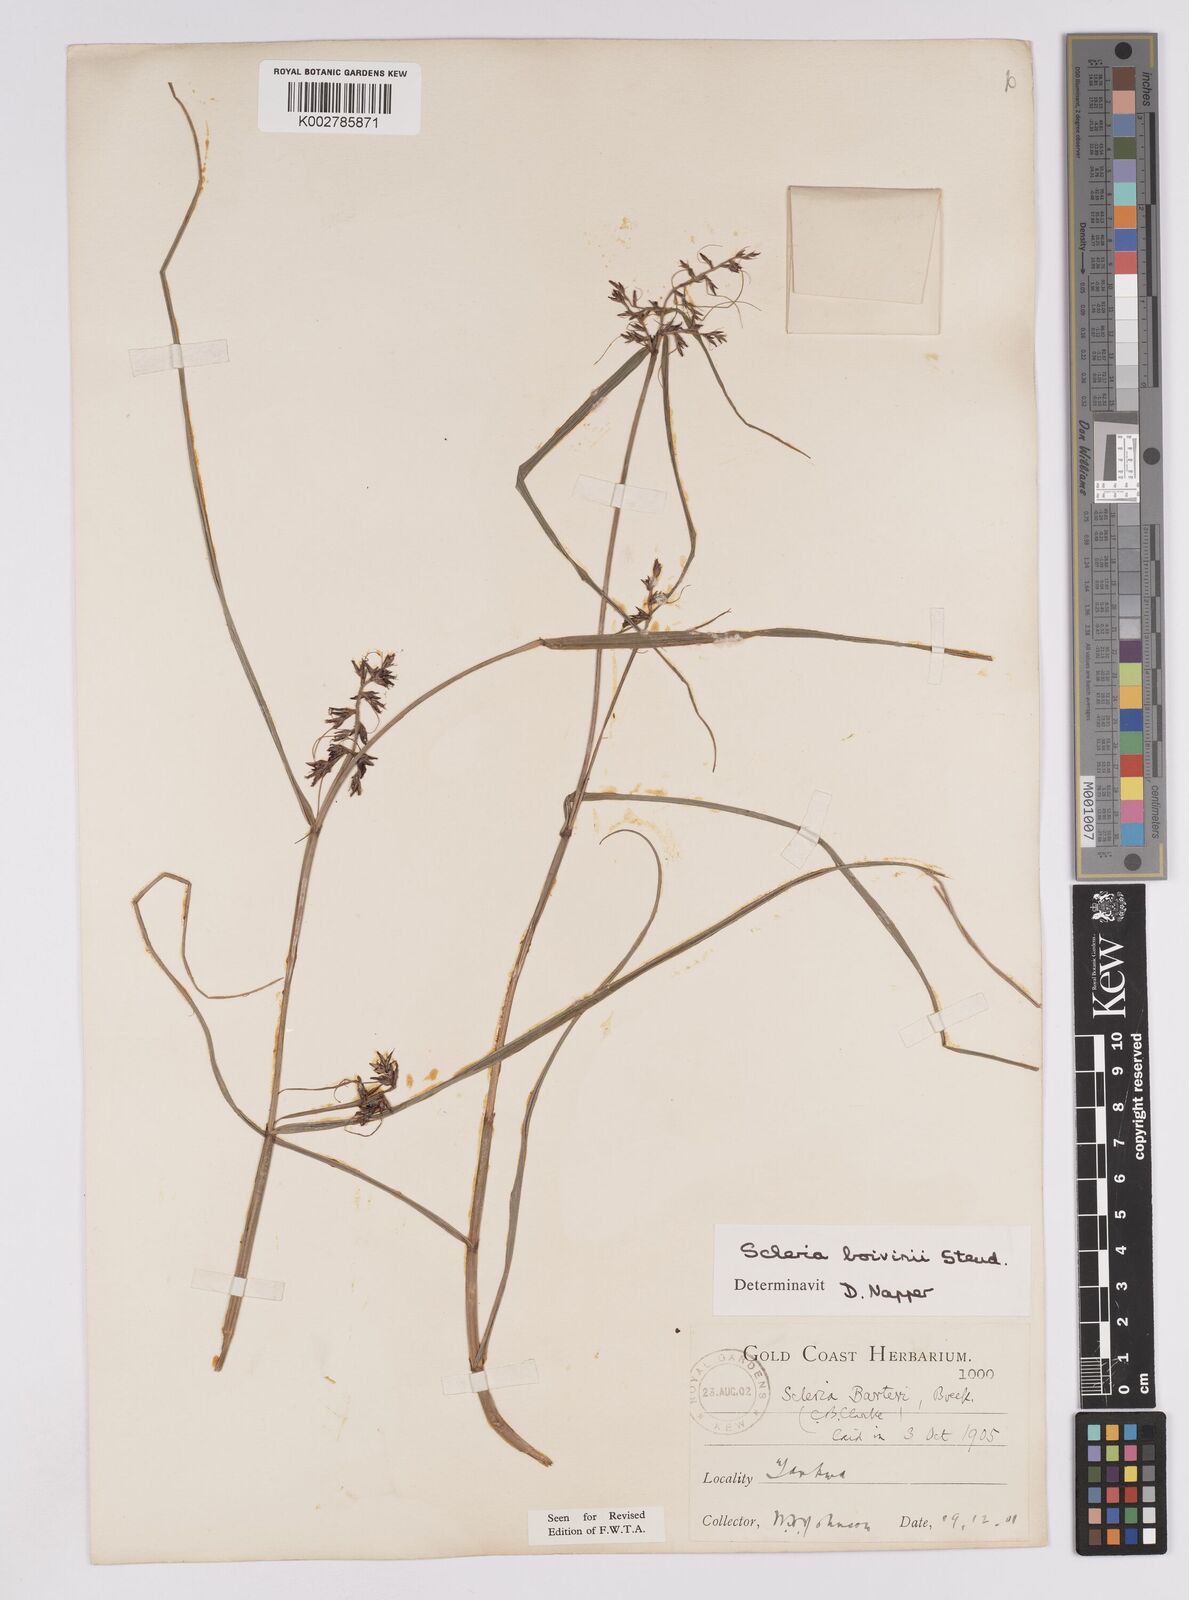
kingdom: Plantae
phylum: Tracheophyta
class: Liliopsida
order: Poales
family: Cyperaceae
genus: Scleria
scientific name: Scleria boivinii
